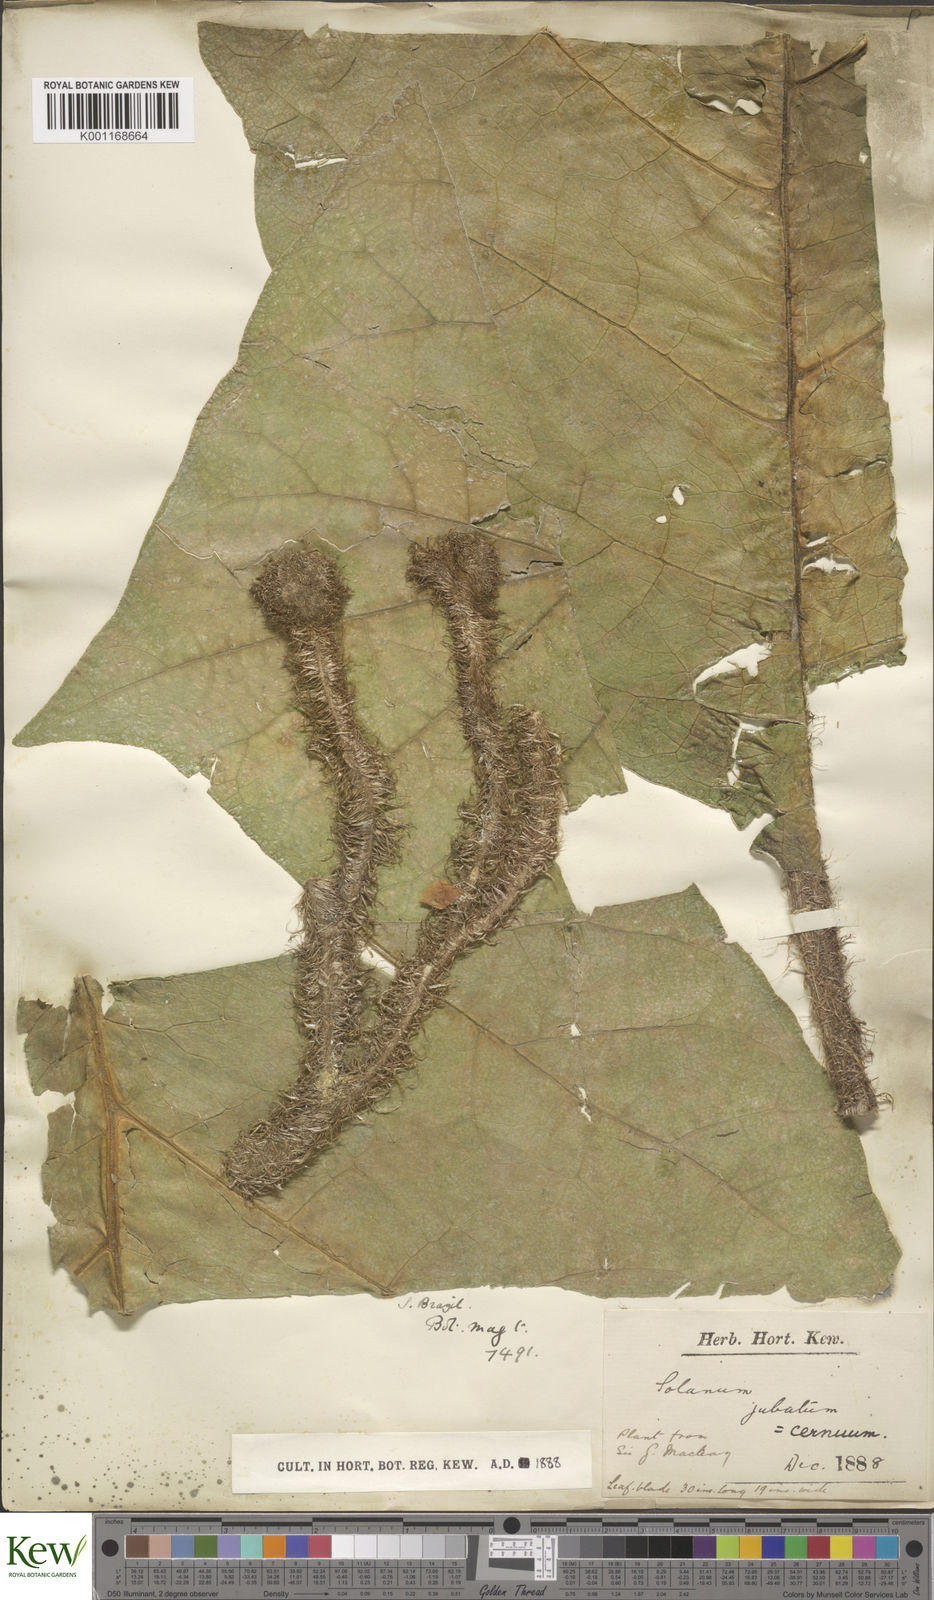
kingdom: Plantae
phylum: Tracheophyta
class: Magnoliopsida
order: Solanales
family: Solanaceae
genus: Solanum
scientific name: Solanum cernuum
